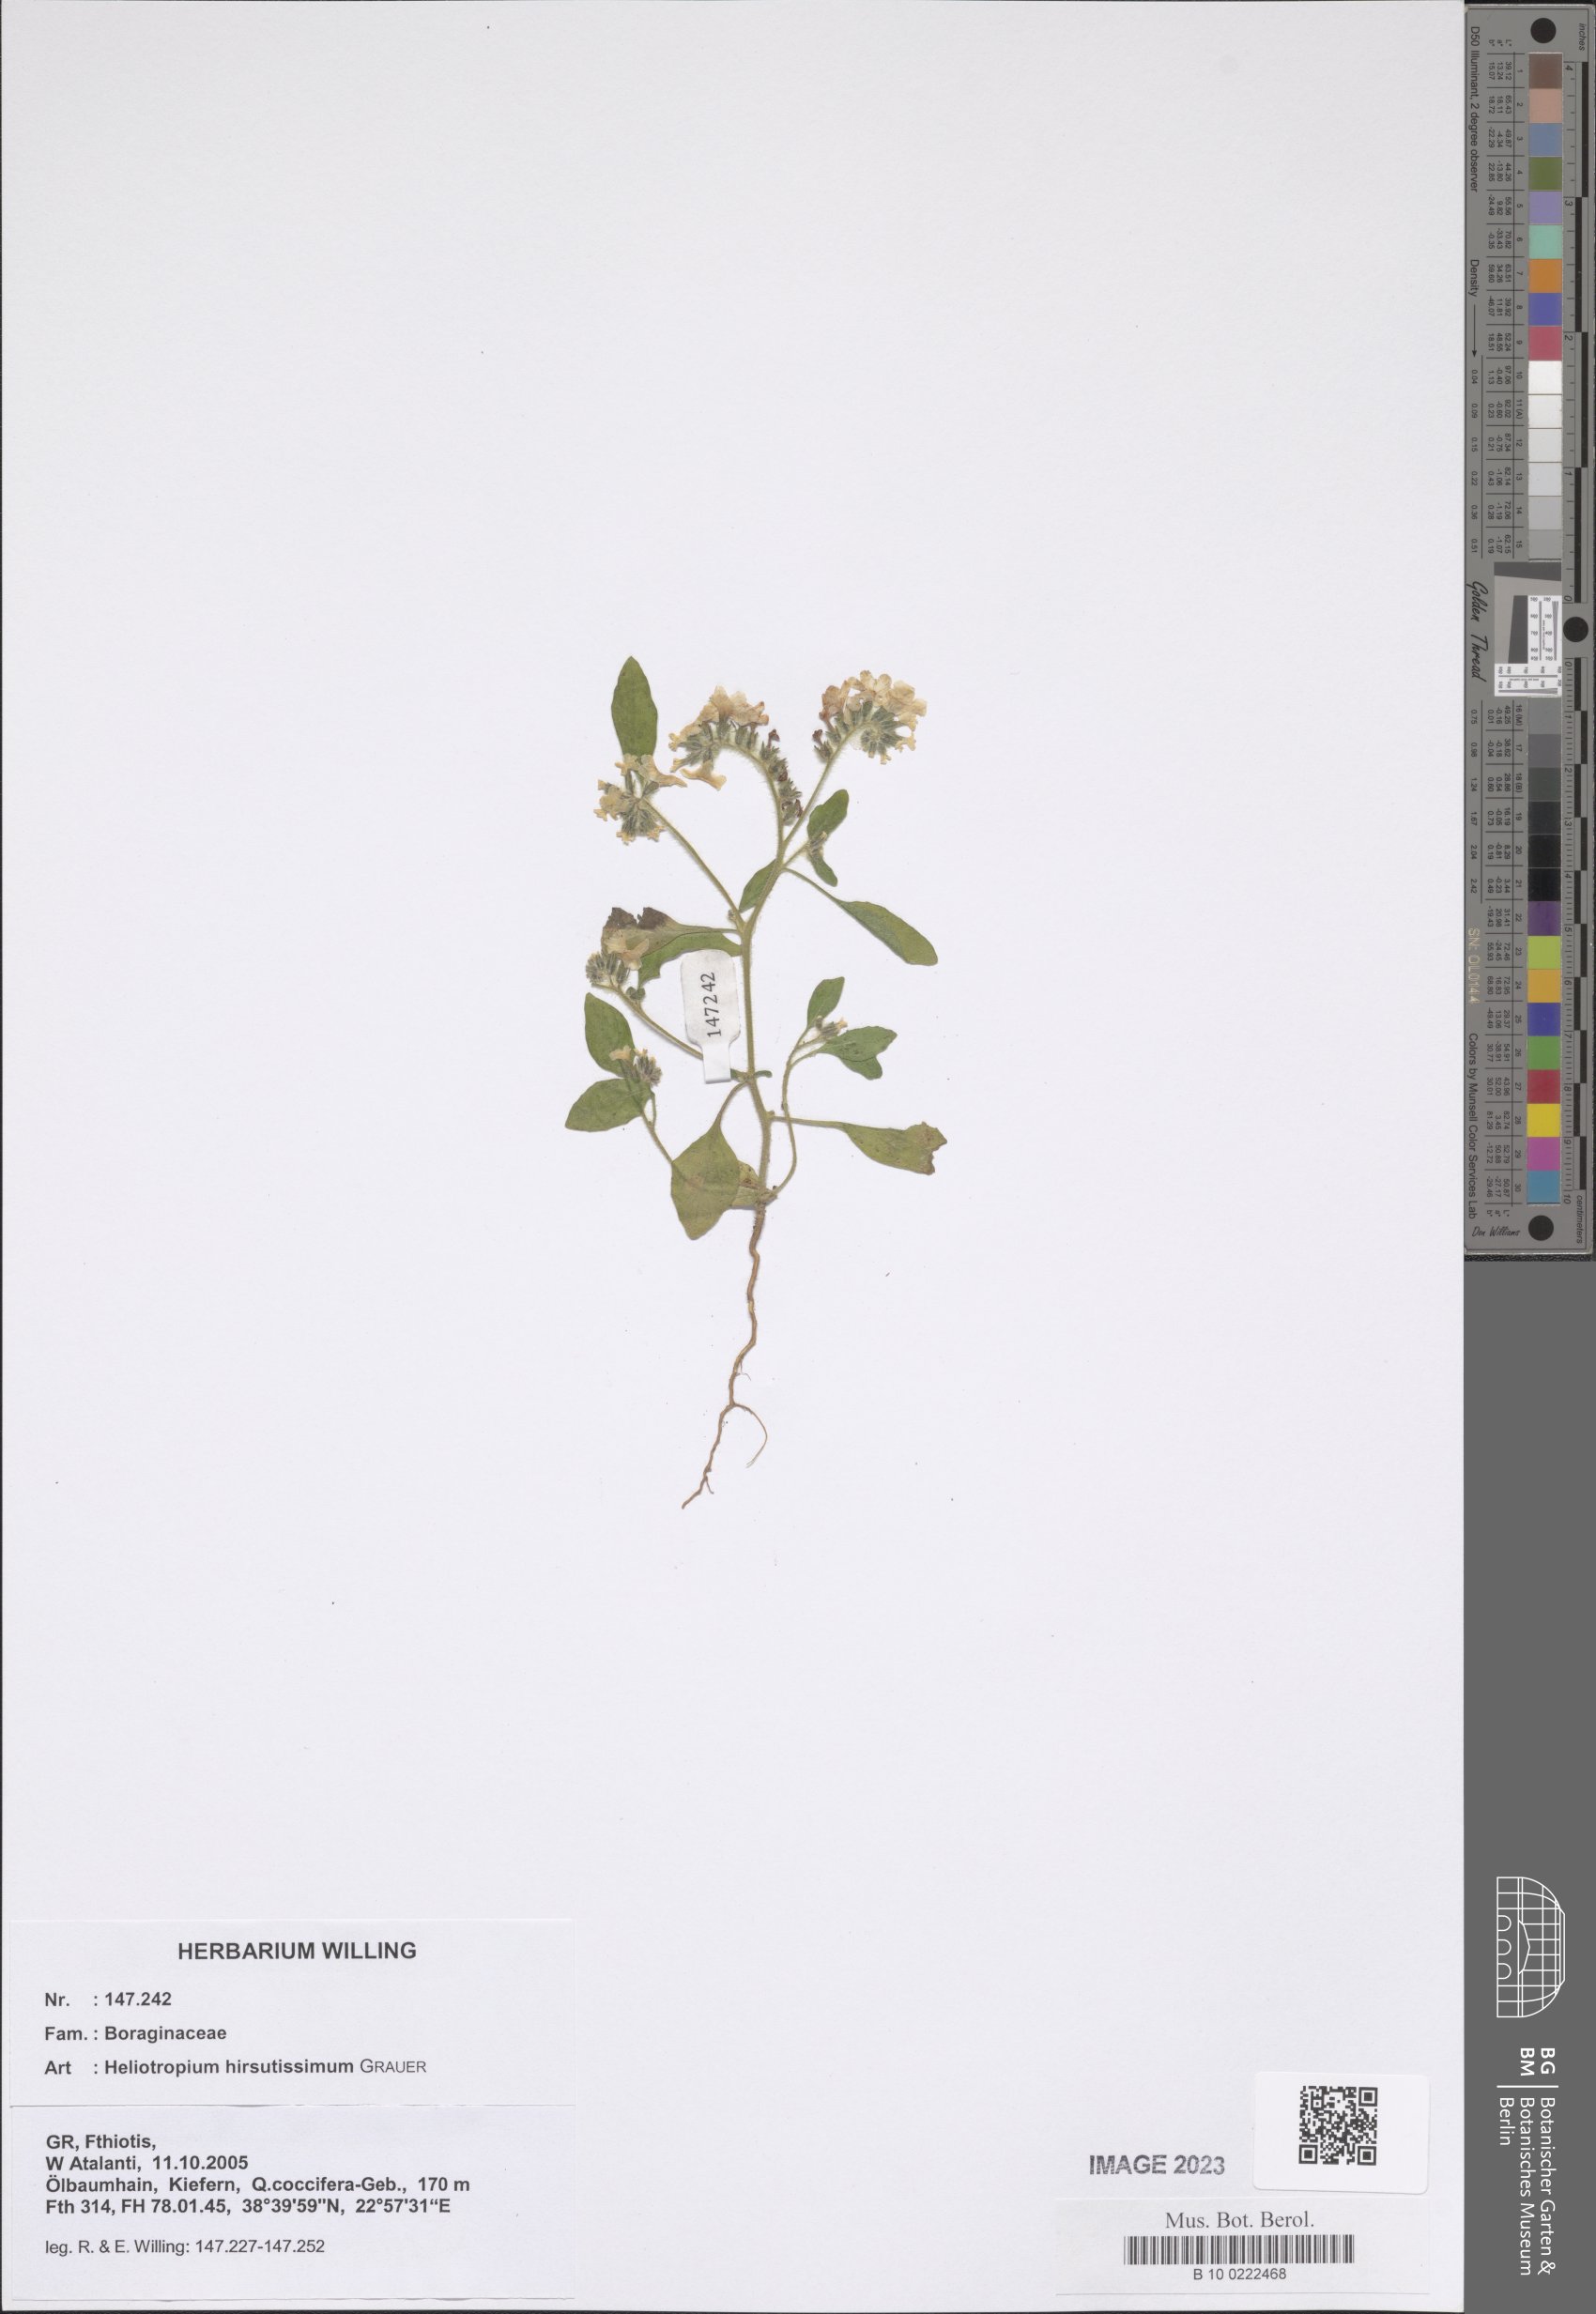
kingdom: Plantae
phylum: Tracheophyta
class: Magnoliopsida
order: Boraginales
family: Heliotropiaceae
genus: Heliotropium
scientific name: Heliotropium hirsutissimum
